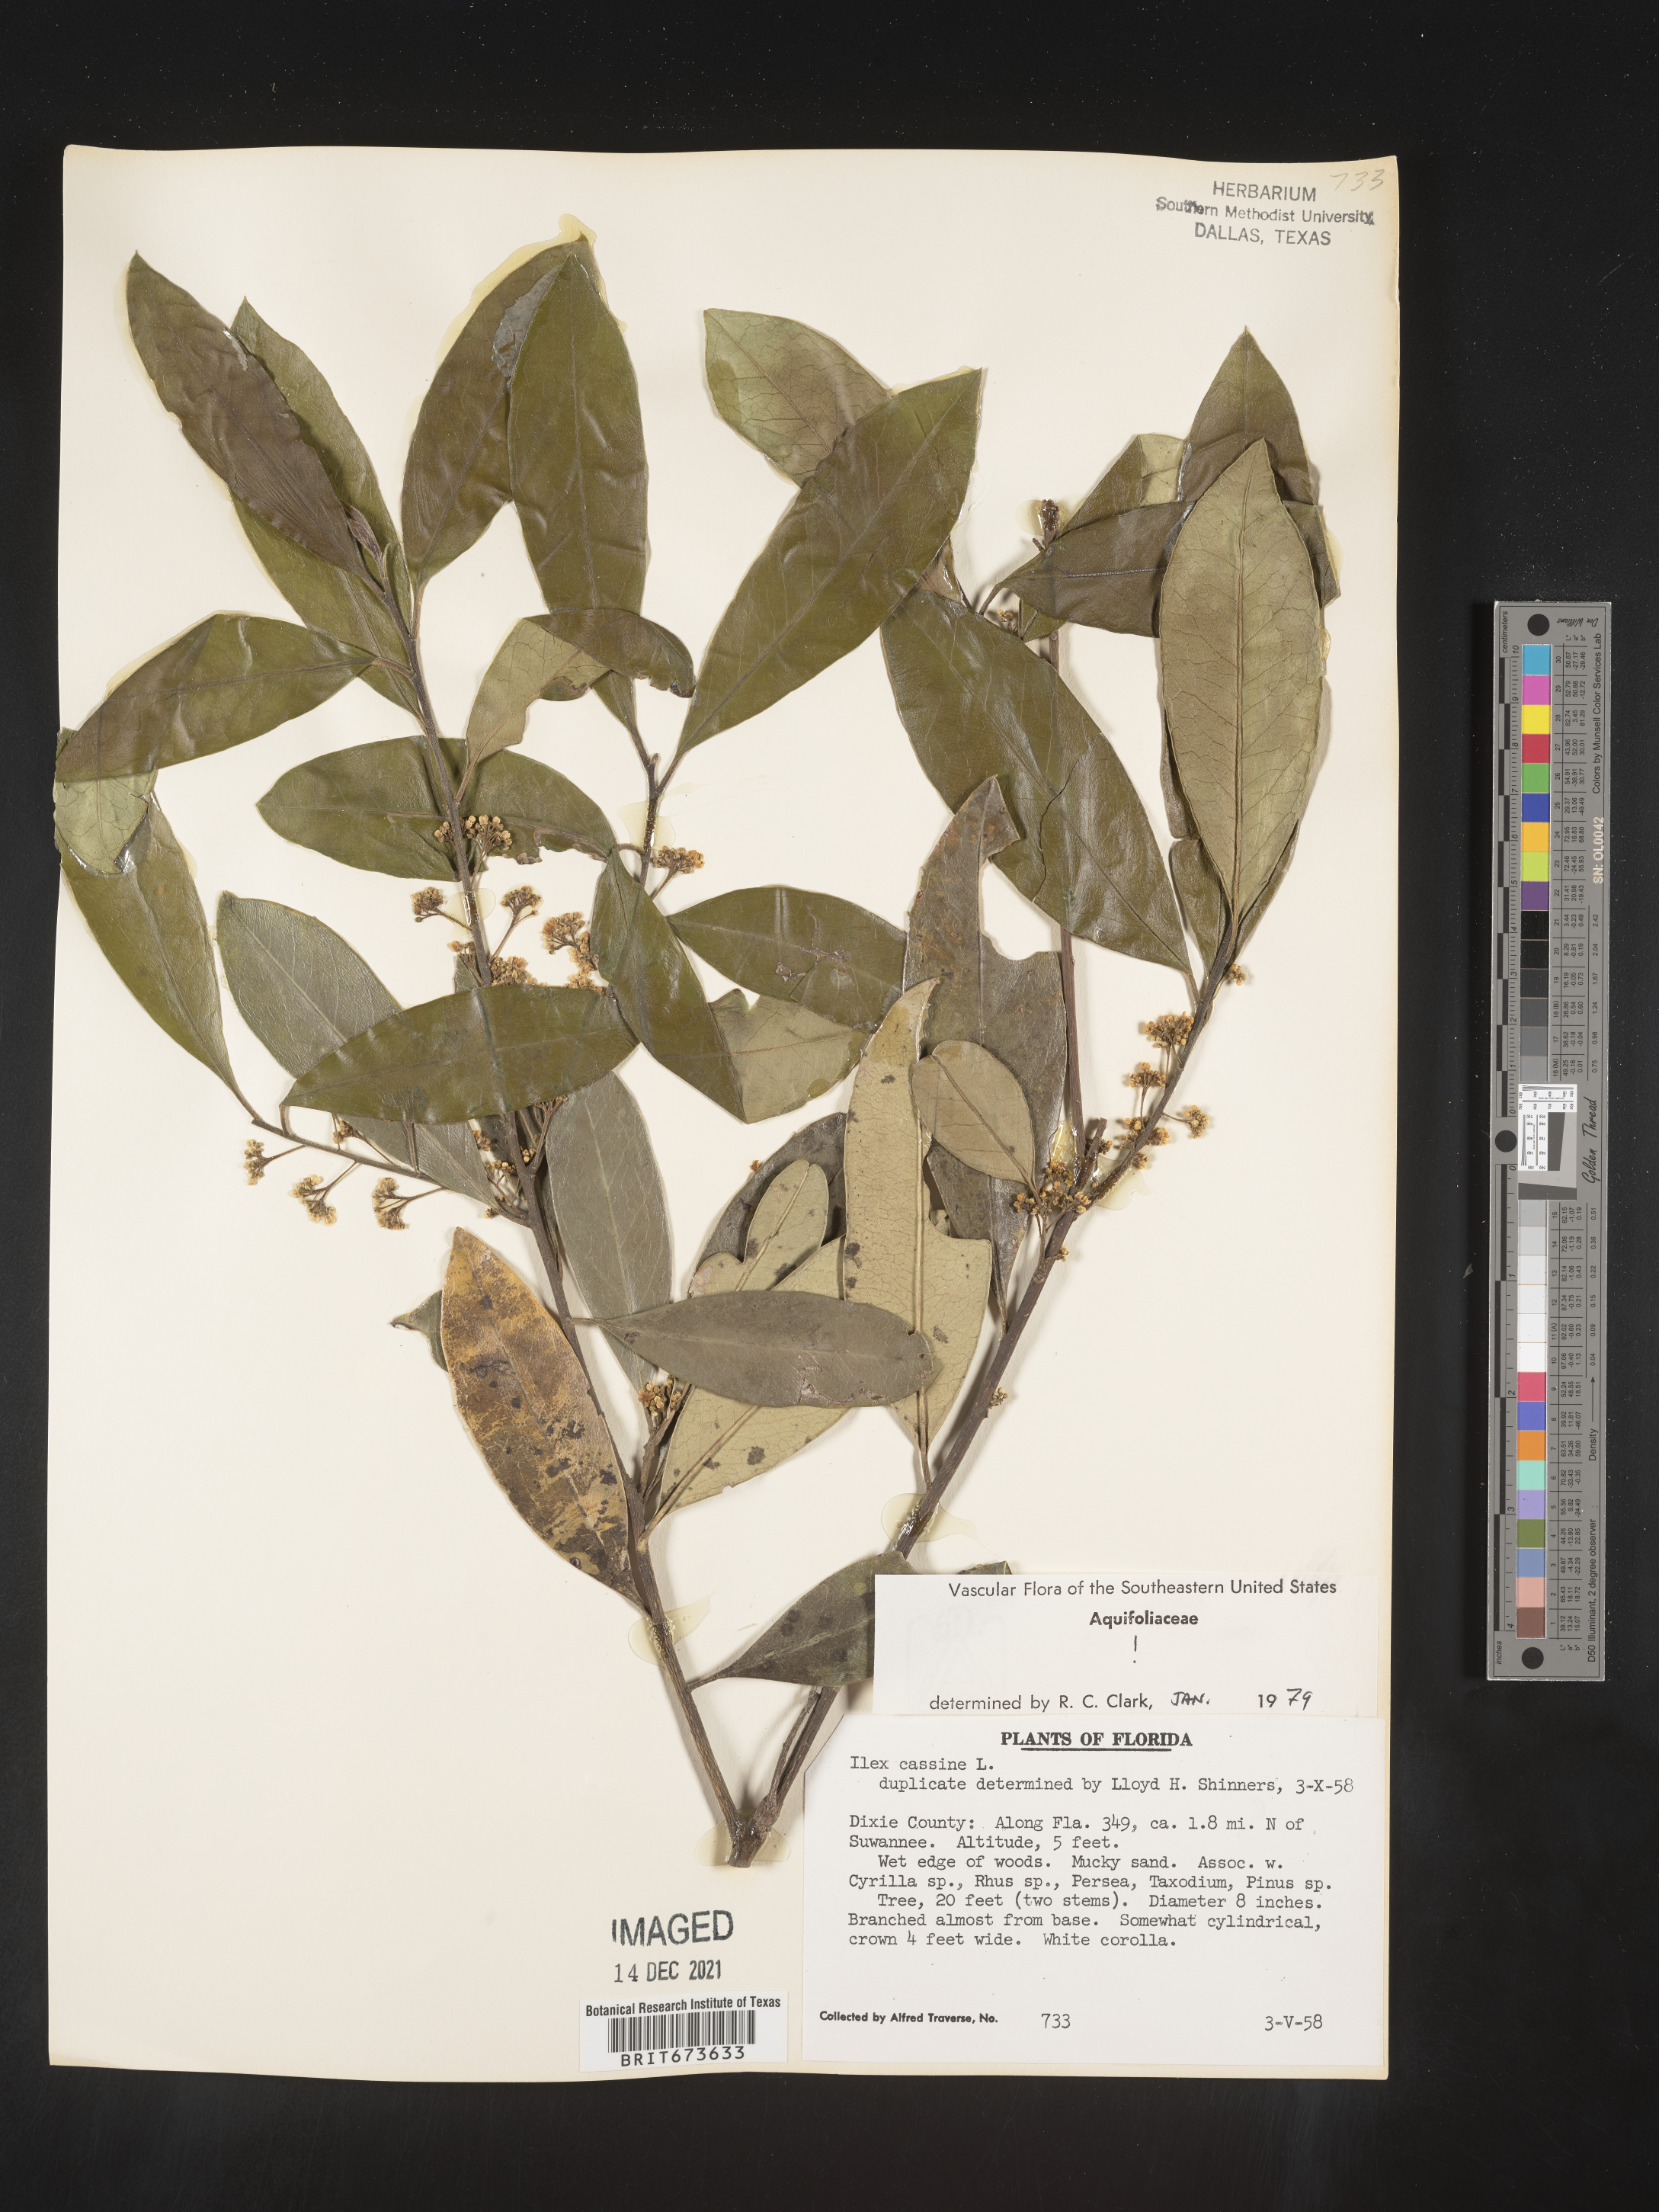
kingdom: Plantae
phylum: Tracheophyta
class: Magnoliopsida
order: Aquifoliales
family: Aquifoliaceae
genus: Ilex
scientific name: Ilex cassine
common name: Dahoon
